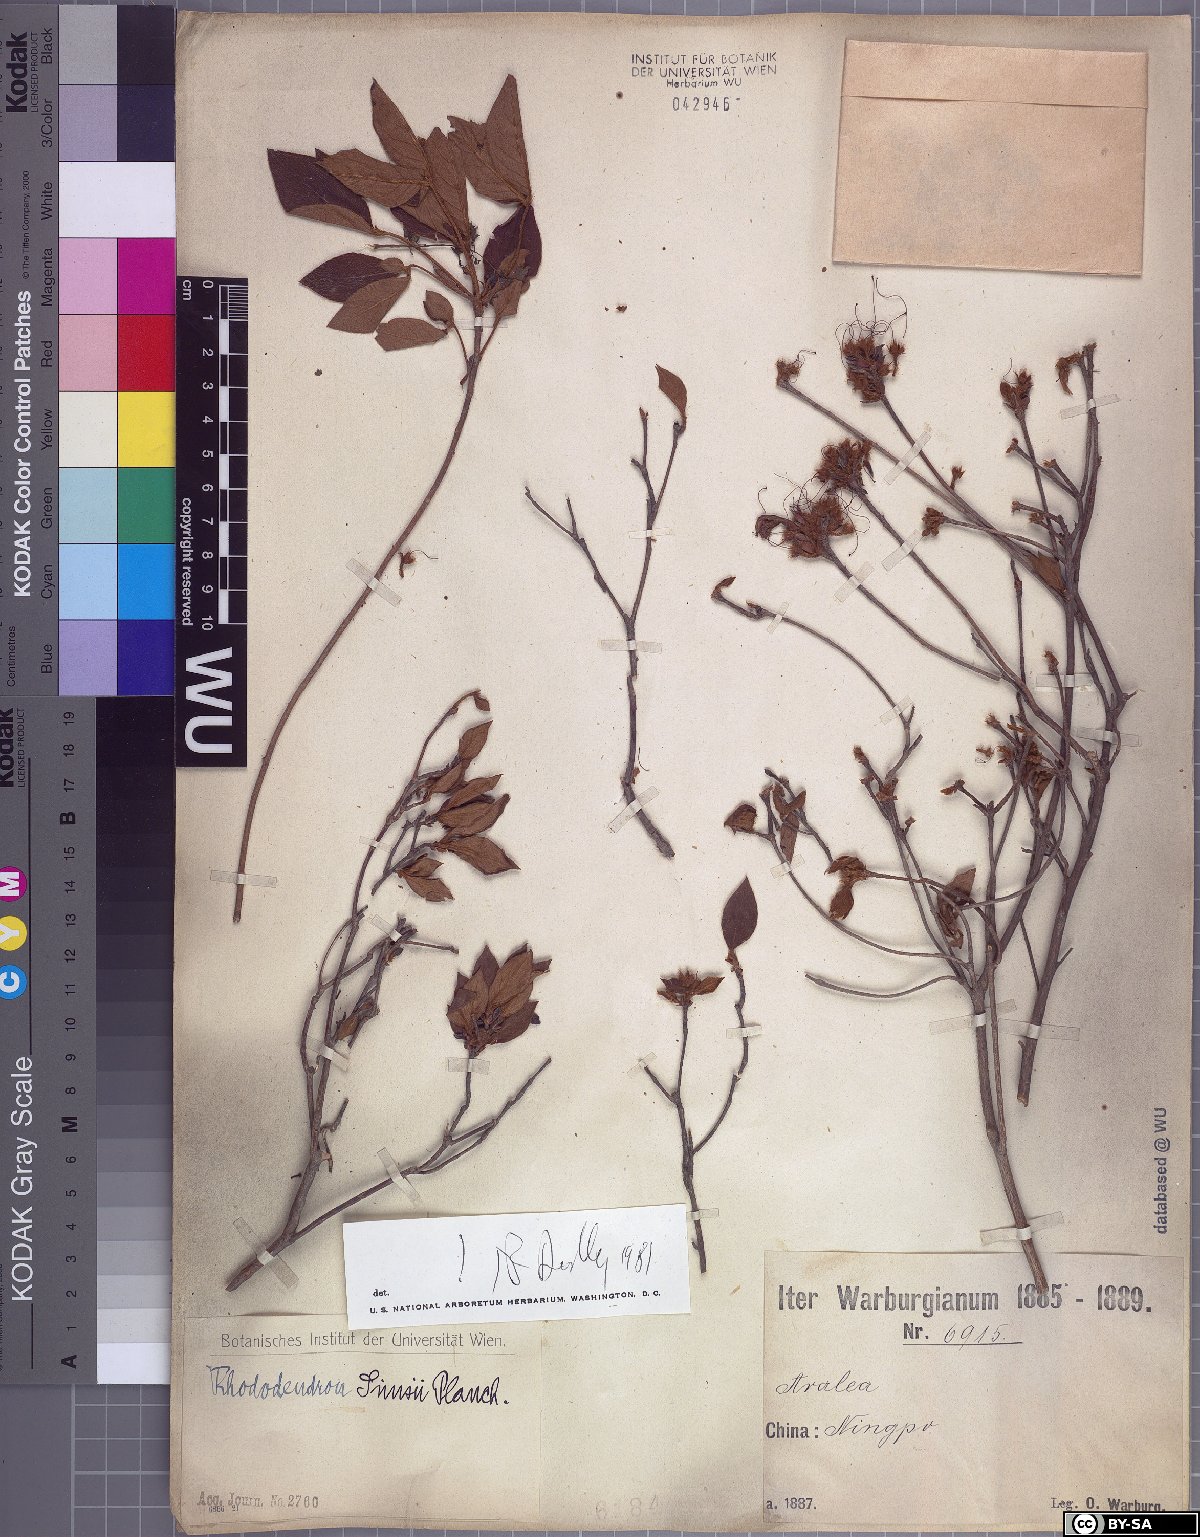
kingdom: Plantae
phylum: Tracheophyta
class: Magnoliopsida
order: Ericales
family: Ericaceae
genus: Rhododendron
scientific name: Rhododendron simsii
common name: Rhododendron
